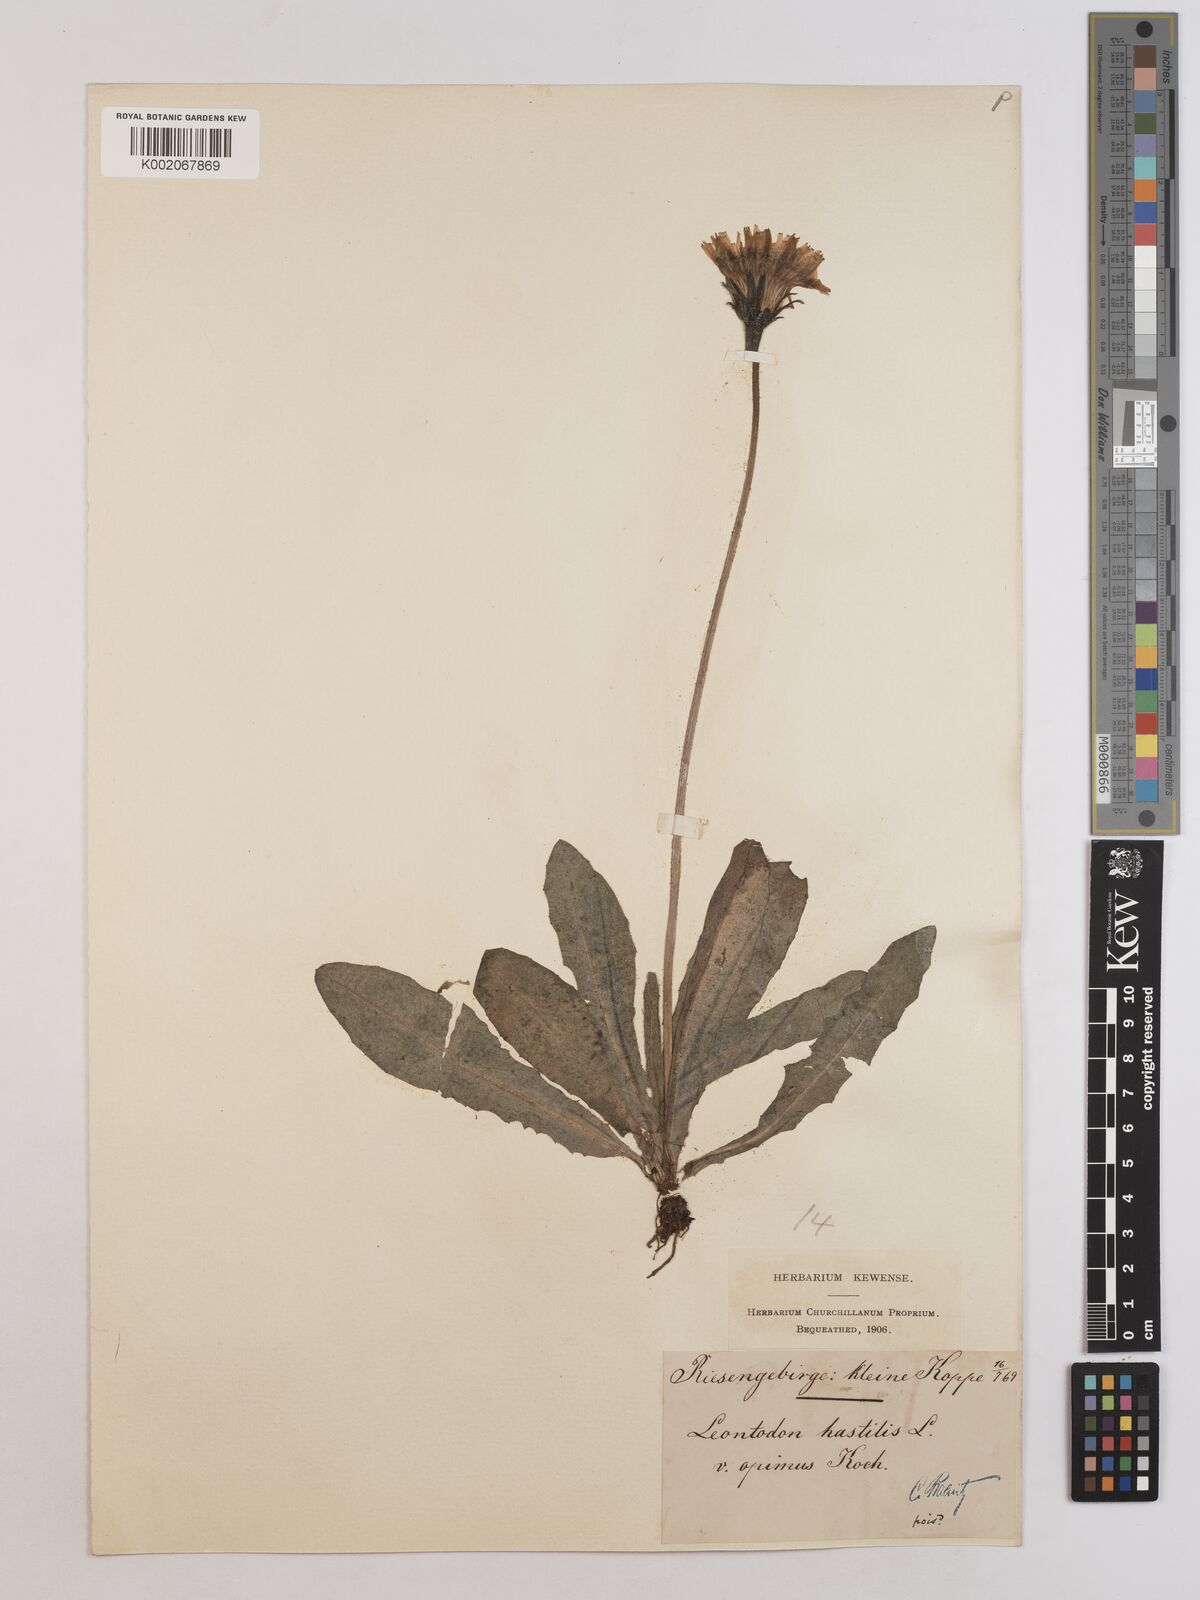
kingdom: Plantae
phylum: Tracheophyta
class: Magnoliopsida
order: Asterales
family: Asteraceae
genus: Leontodon
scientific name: Leontodon hispidus
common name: Rough hawkbit
